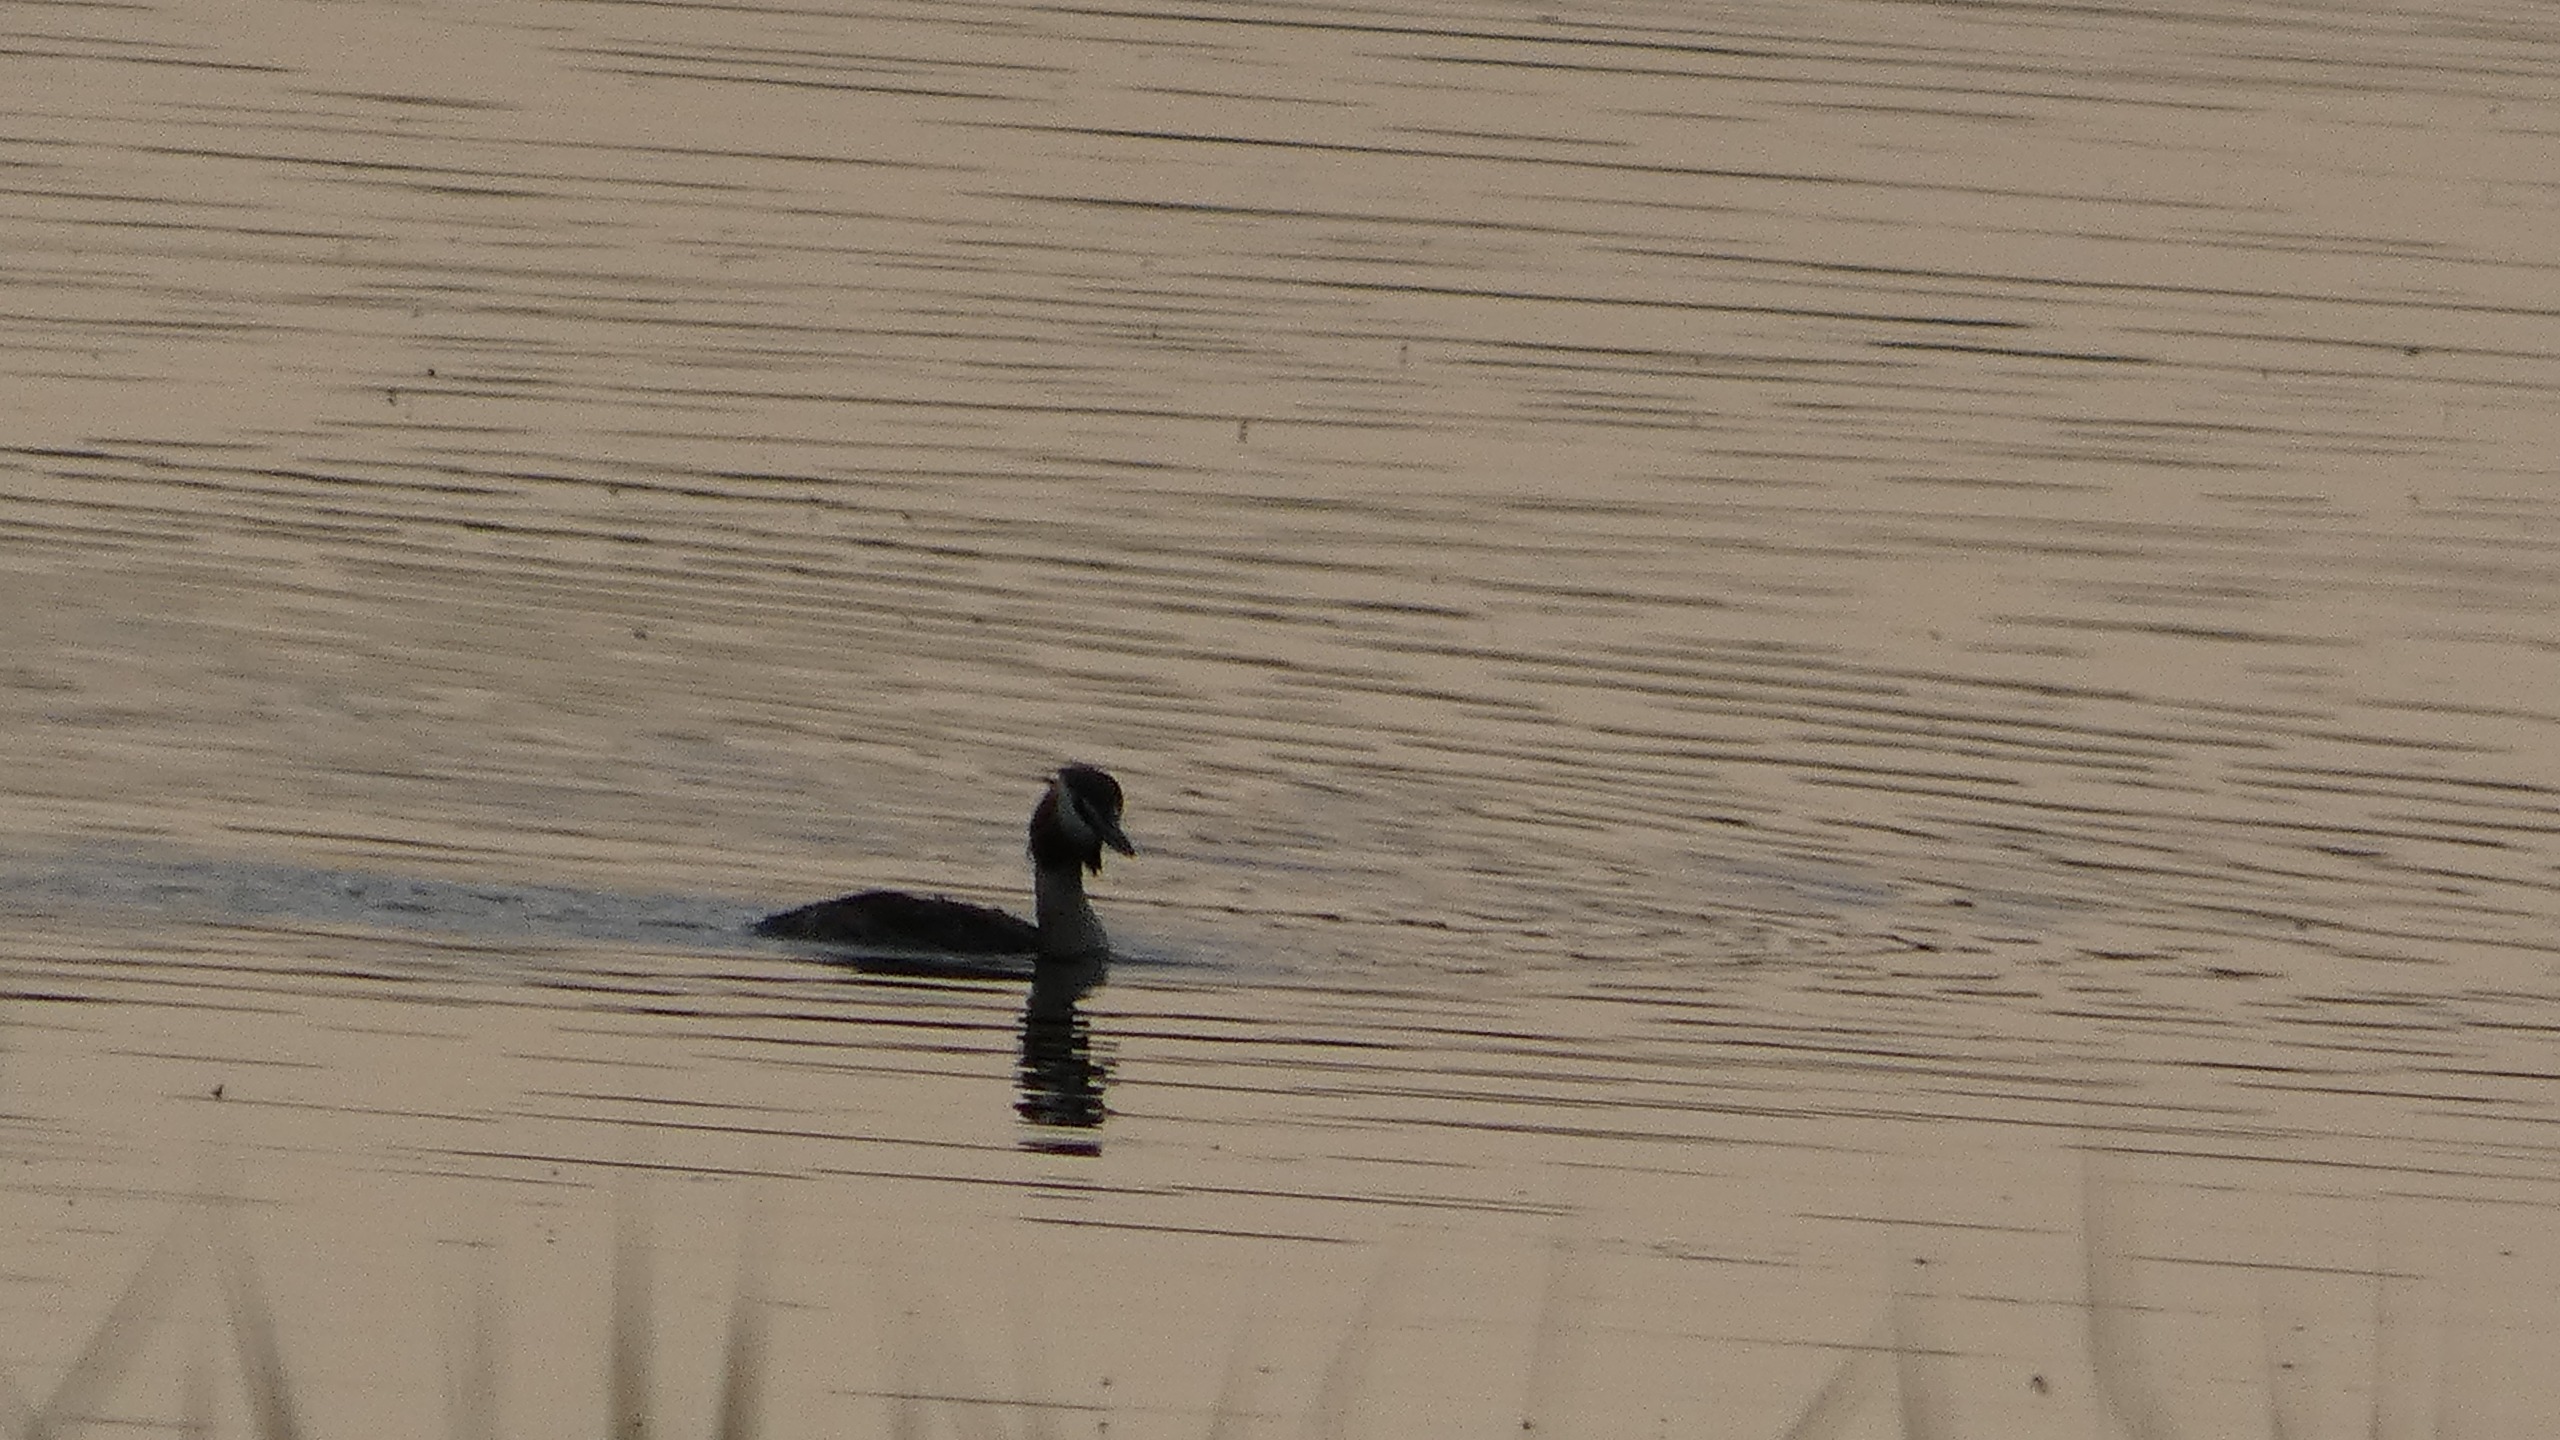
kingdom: Animalia
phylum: Chordata
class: Aves
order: Podicipediformes
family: Podicipedidae
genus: Podiceps
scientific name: Podiceps cristatus
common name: Toppet lappedykker
